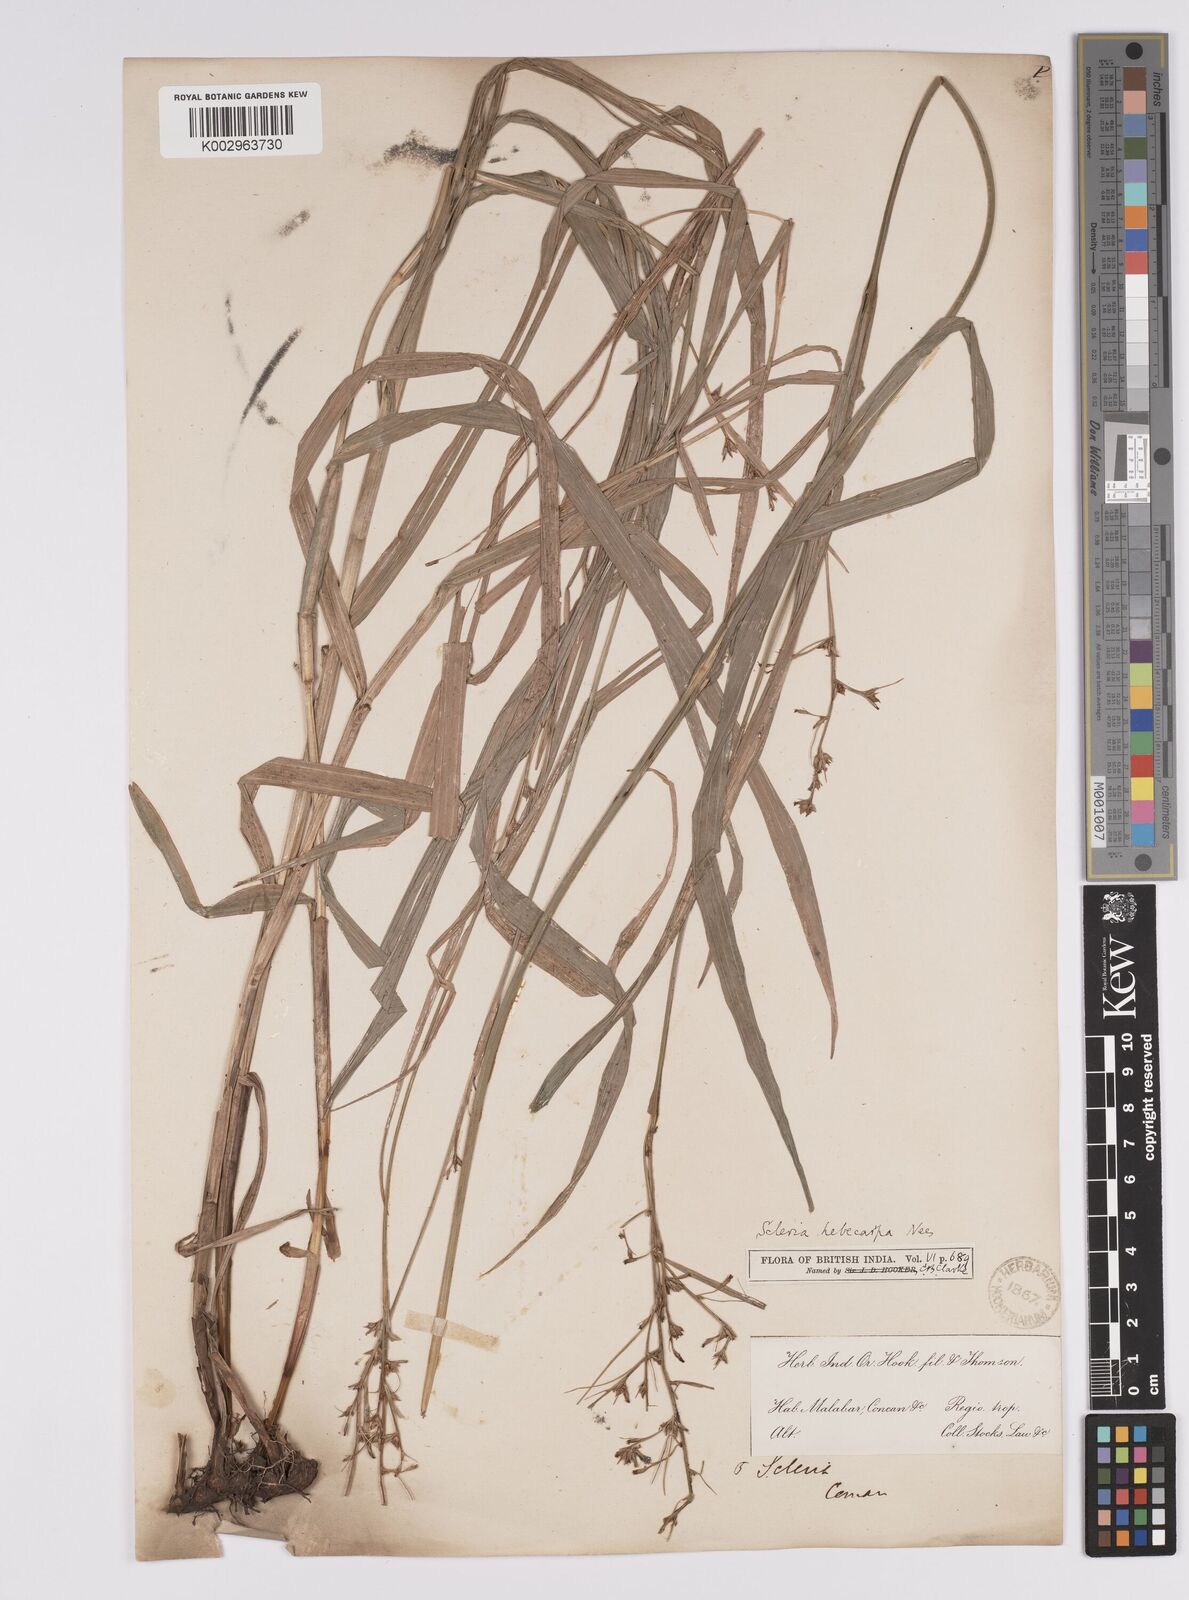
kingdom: Plantae
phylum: Tracheophyta
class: Liliopsida
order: Poales
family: Cyperaceae
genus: Scleria
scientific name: Scleria levis
